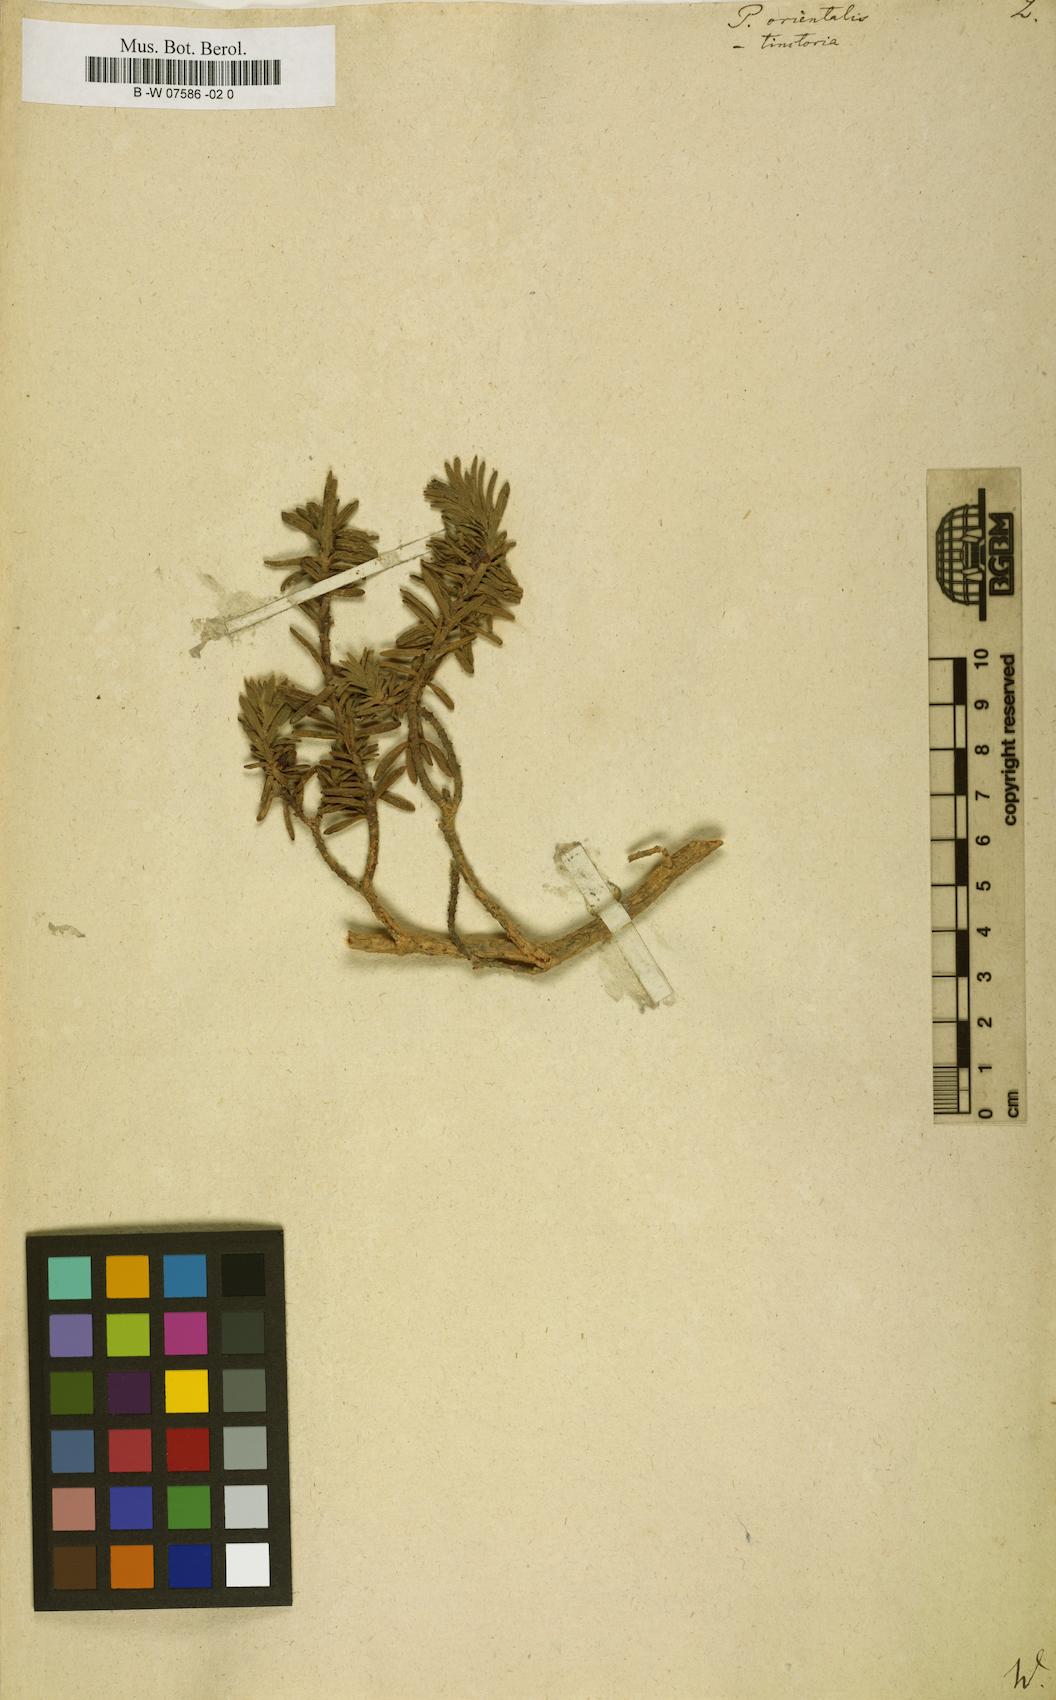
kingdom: Plantae
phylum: Tracheophyta
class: Magnoliopsida
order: Malvales
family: Thymelaeaceae
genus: Thymelaea
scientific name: Thymelaea villosa
